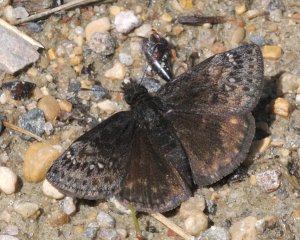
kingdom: Animalia
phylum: Arthropoda
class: Insecta
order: Lepidoptera
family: Hesperiidae
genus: Gesta
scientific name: Gesta
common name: Persius Duskywing
